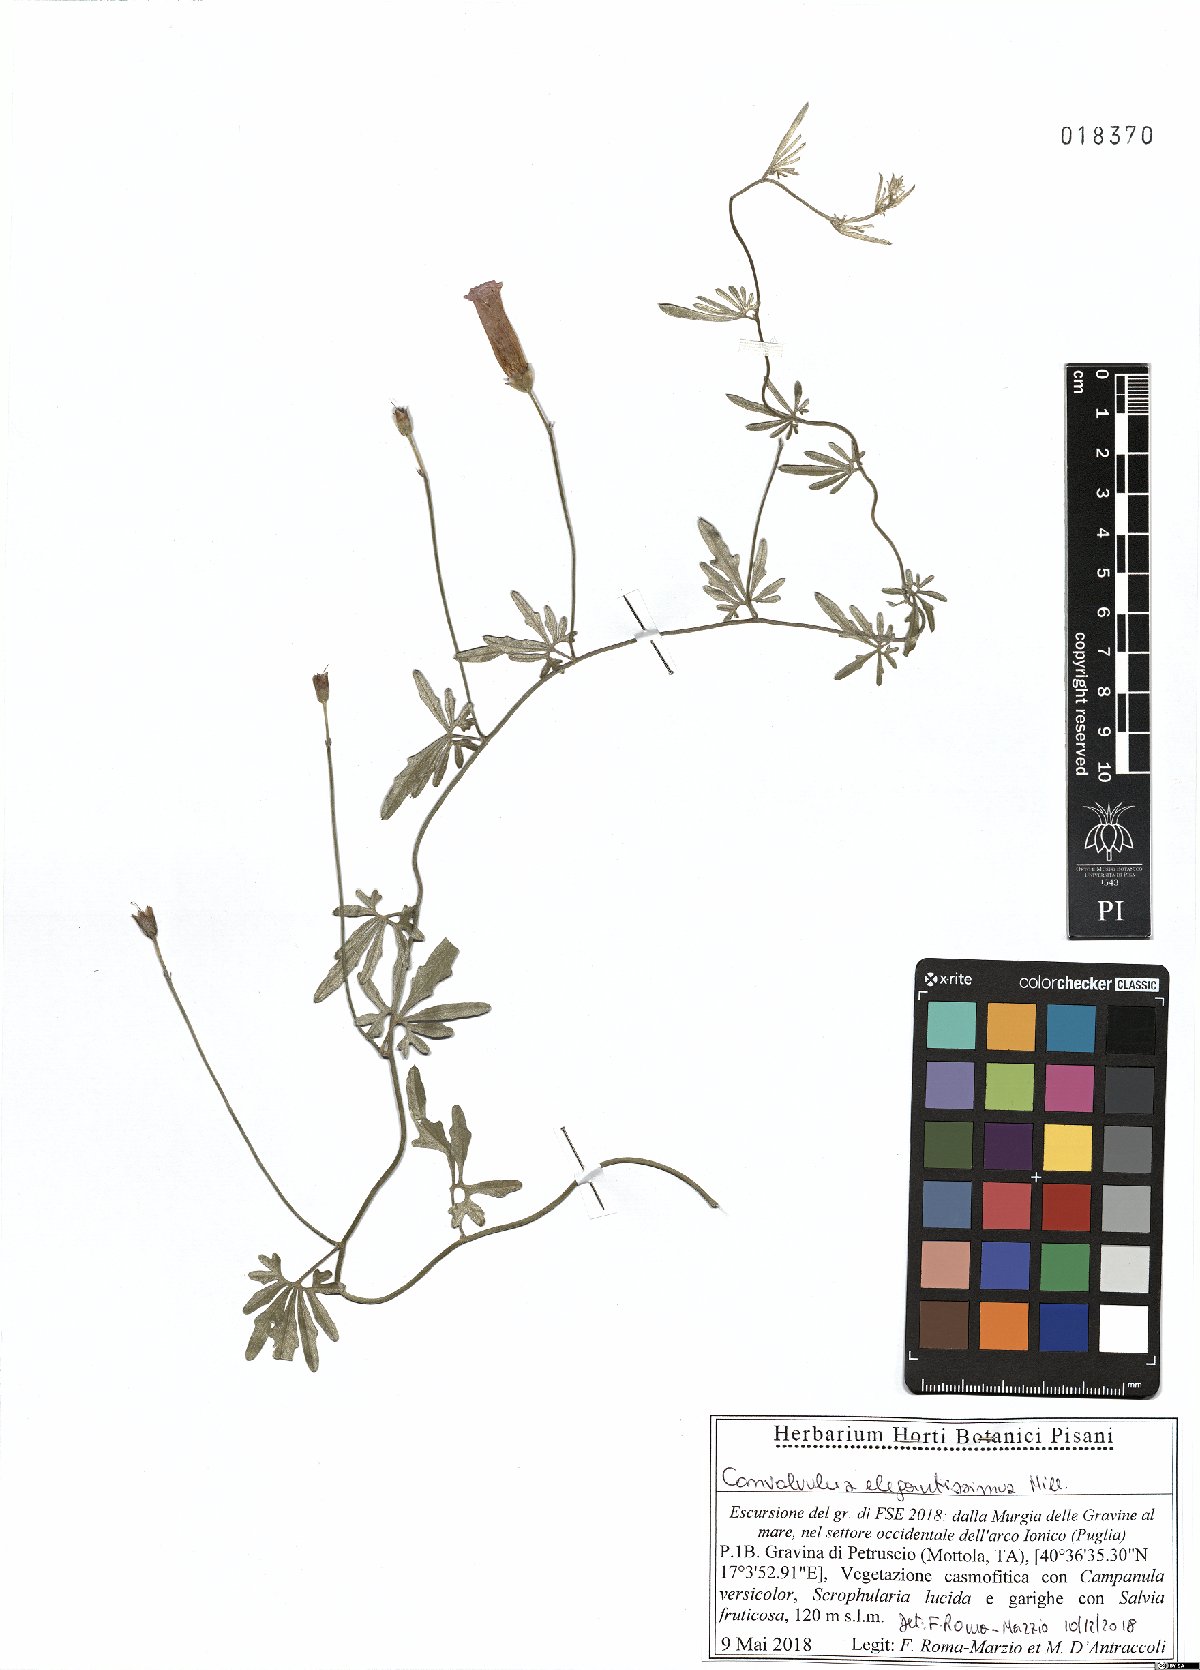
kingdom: Plantae
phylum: Tracheophyta
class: Magnoliopsida
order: Solanales
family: Convolvulaceae
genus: Convolvulus
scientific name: Convolvulus elegantissimus
